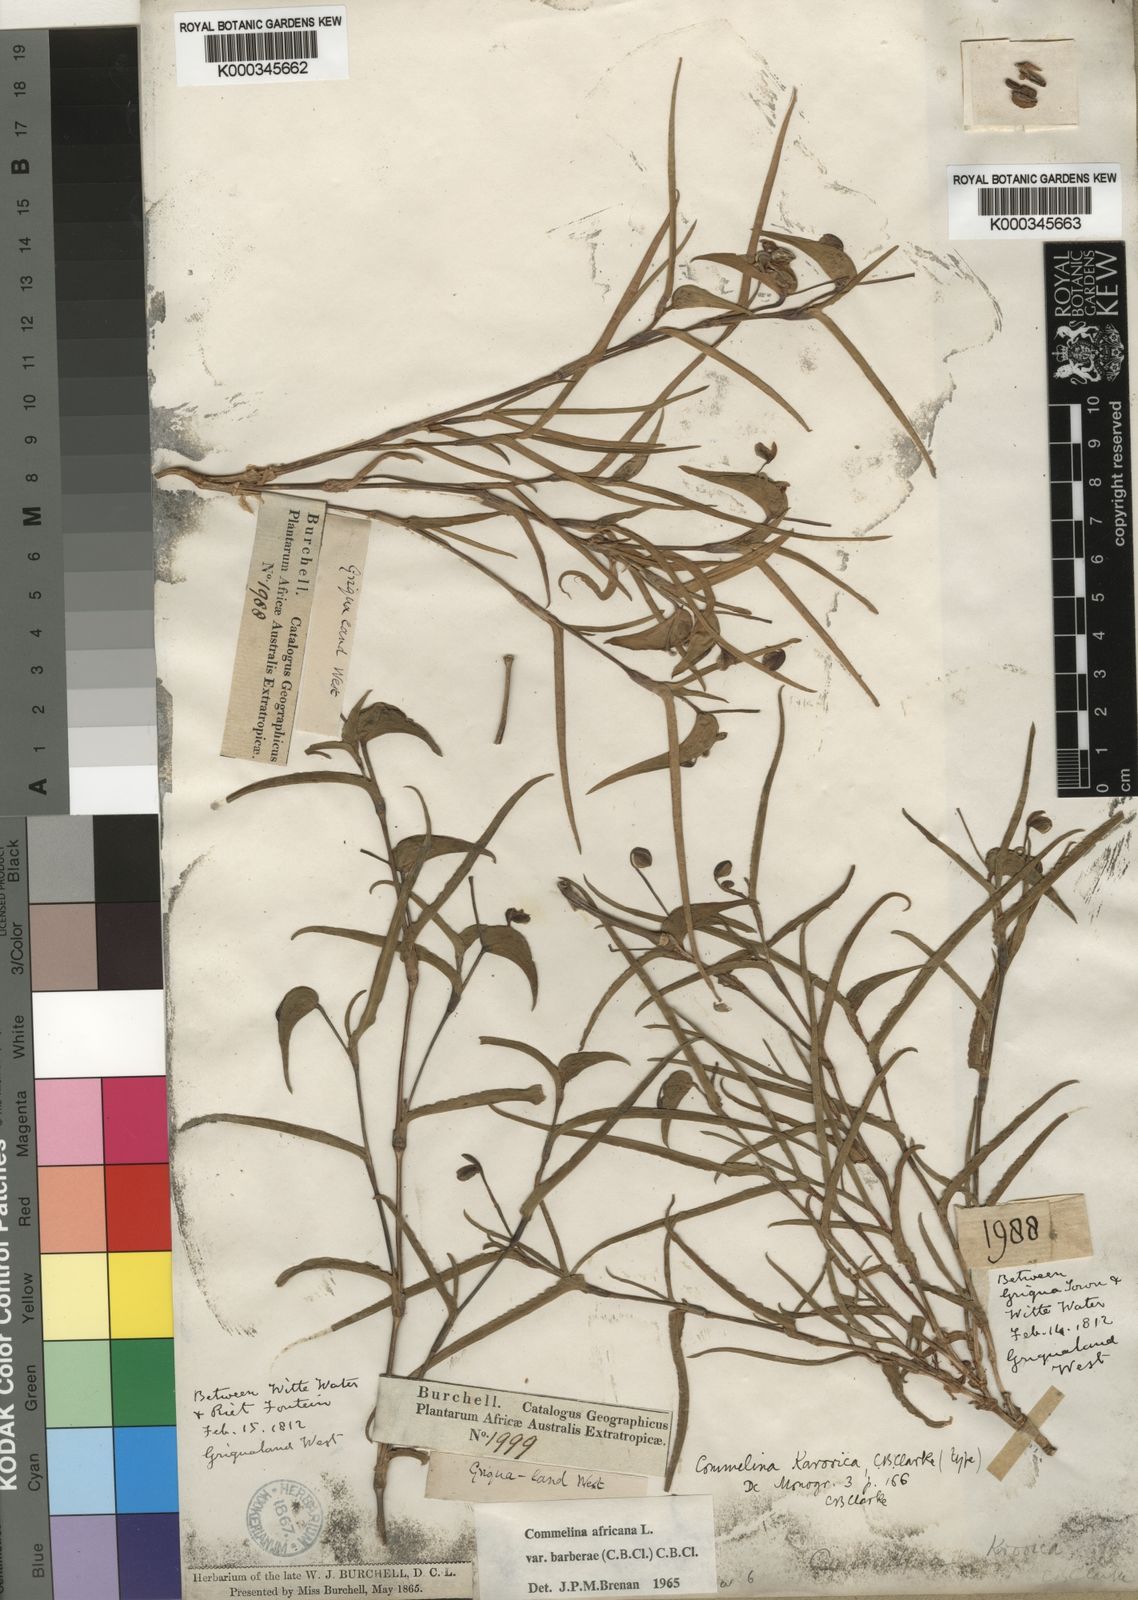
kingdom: Plantae
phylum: Tracheophyta
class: Liliopsida
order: Commelinales
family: Commelinaceae
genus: Commelina
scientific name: Commelina africana
